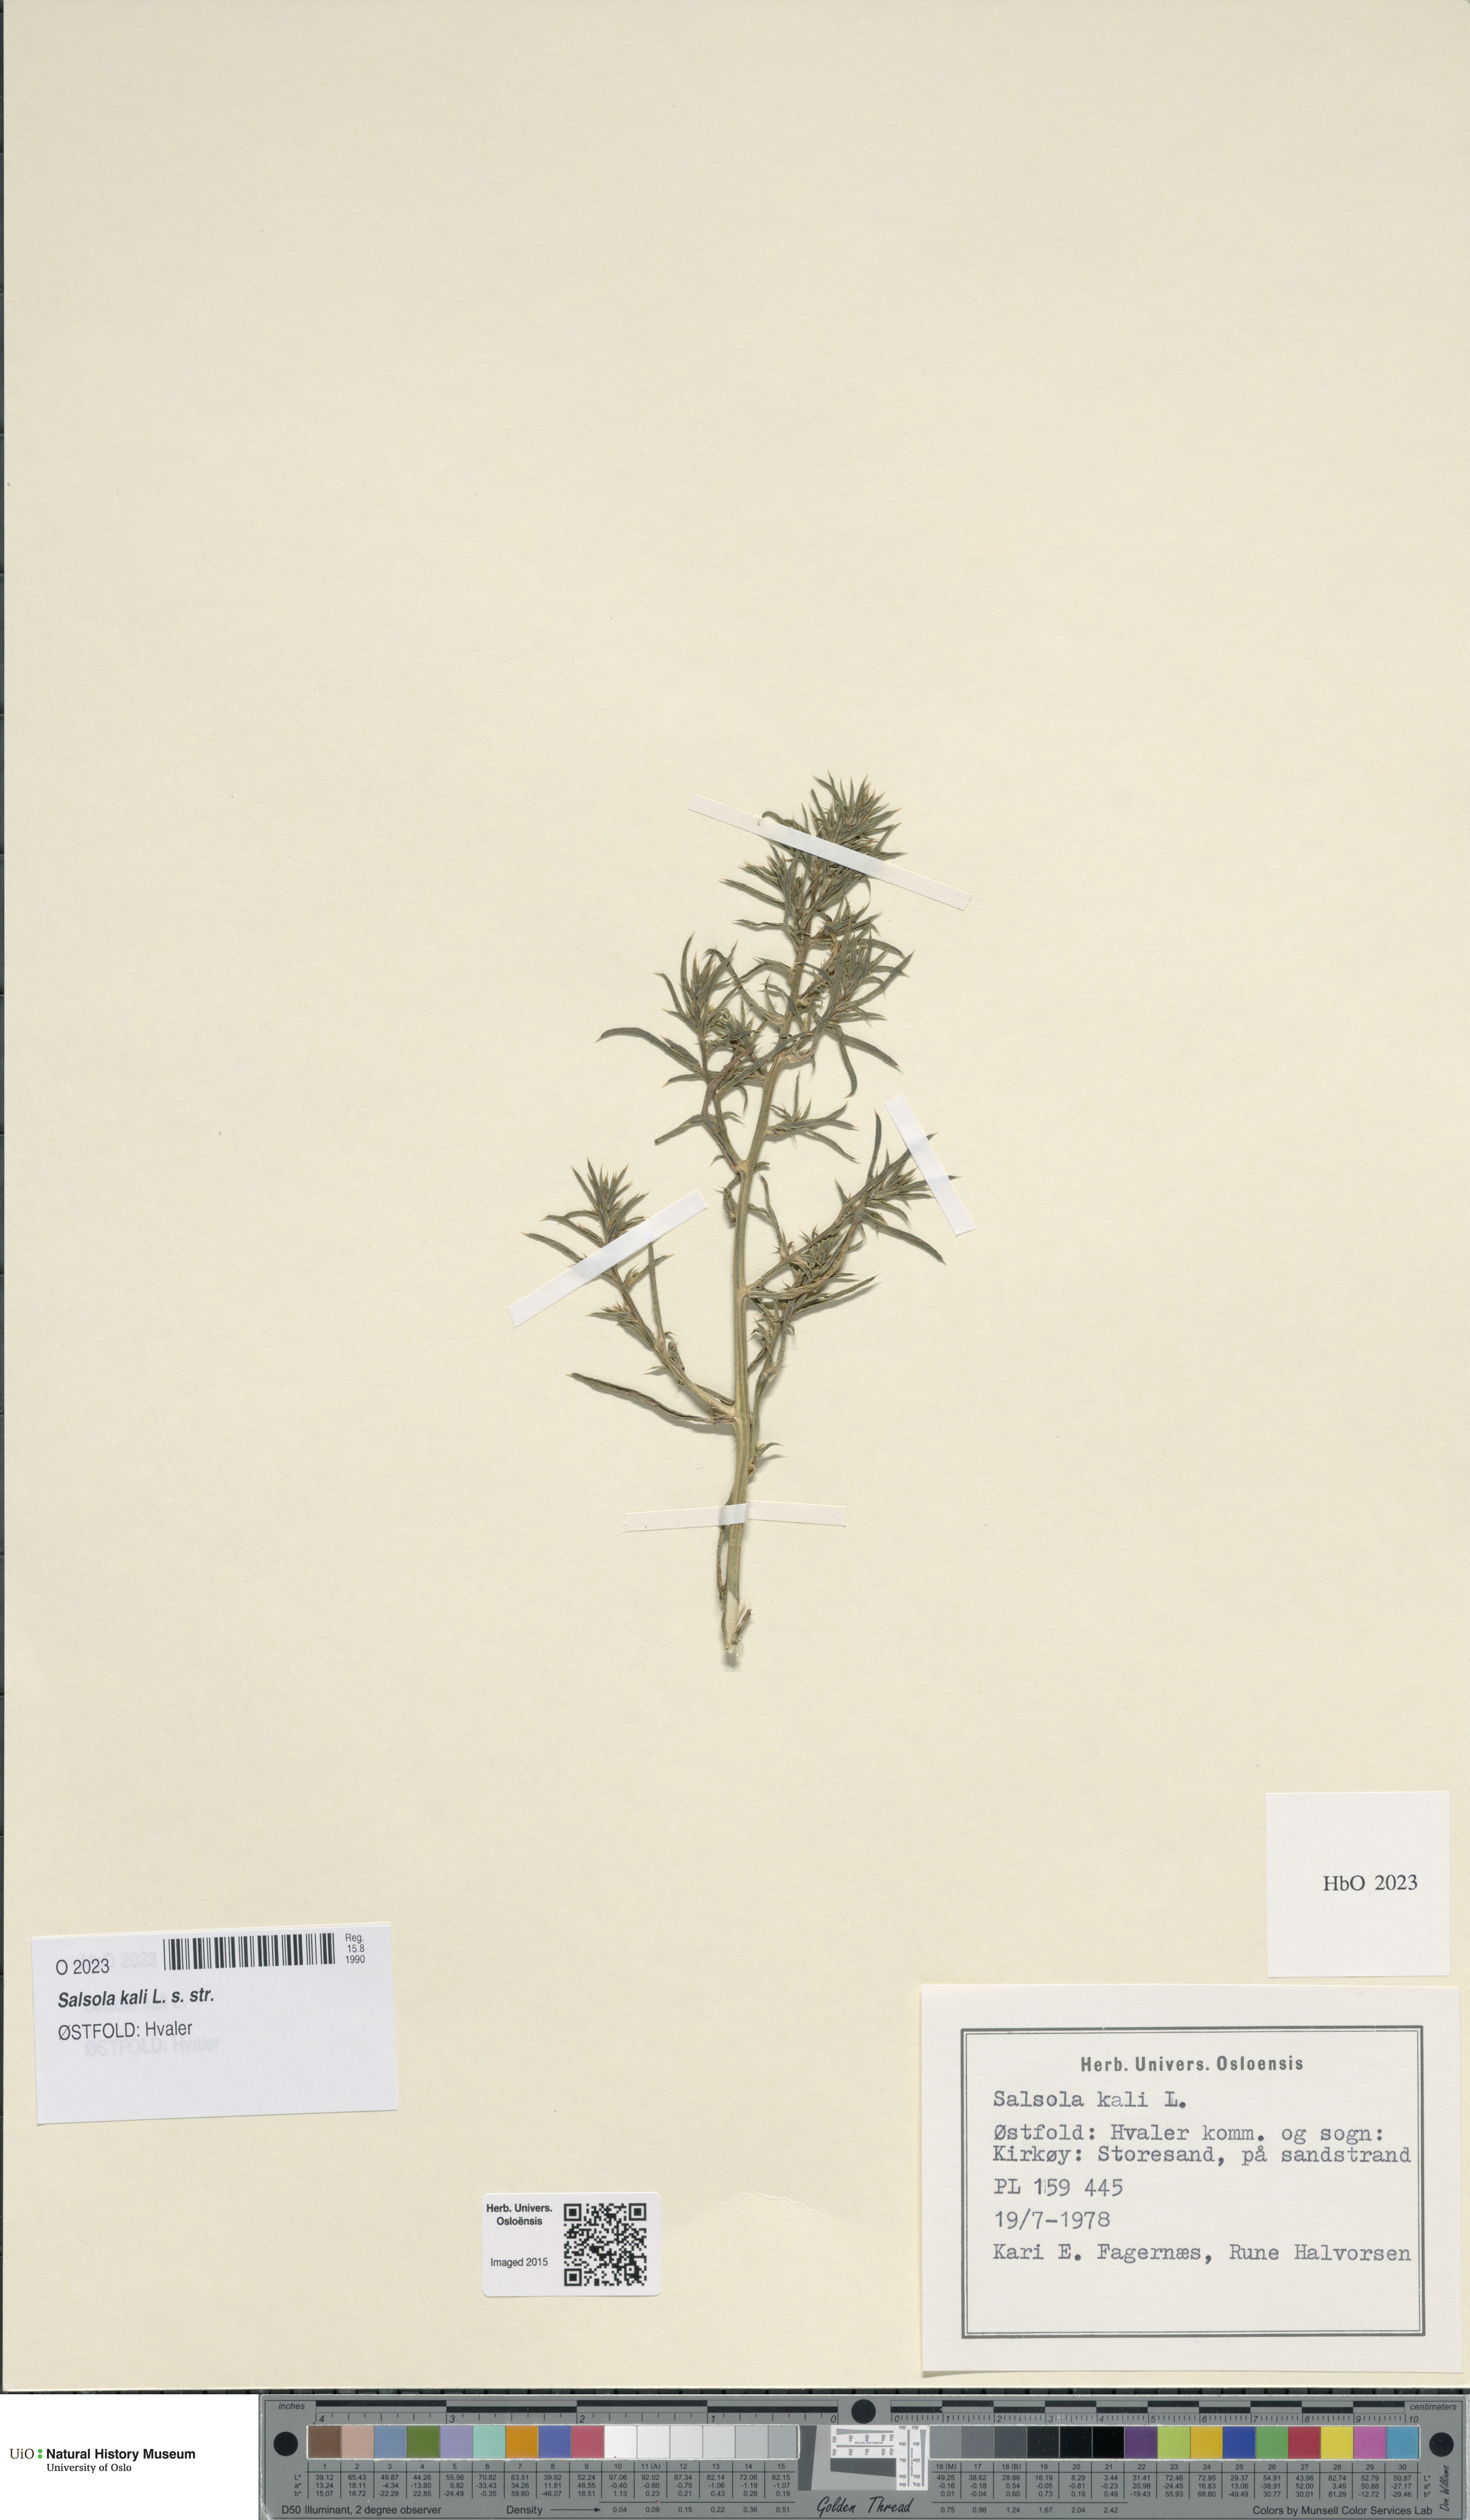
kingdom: Plantae
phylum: Tracheophyta
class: Magnoliopsida
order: Caryophyllales
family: Amaranthaceae
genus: Salsola
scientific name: Salsola kali
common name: Saltwort
